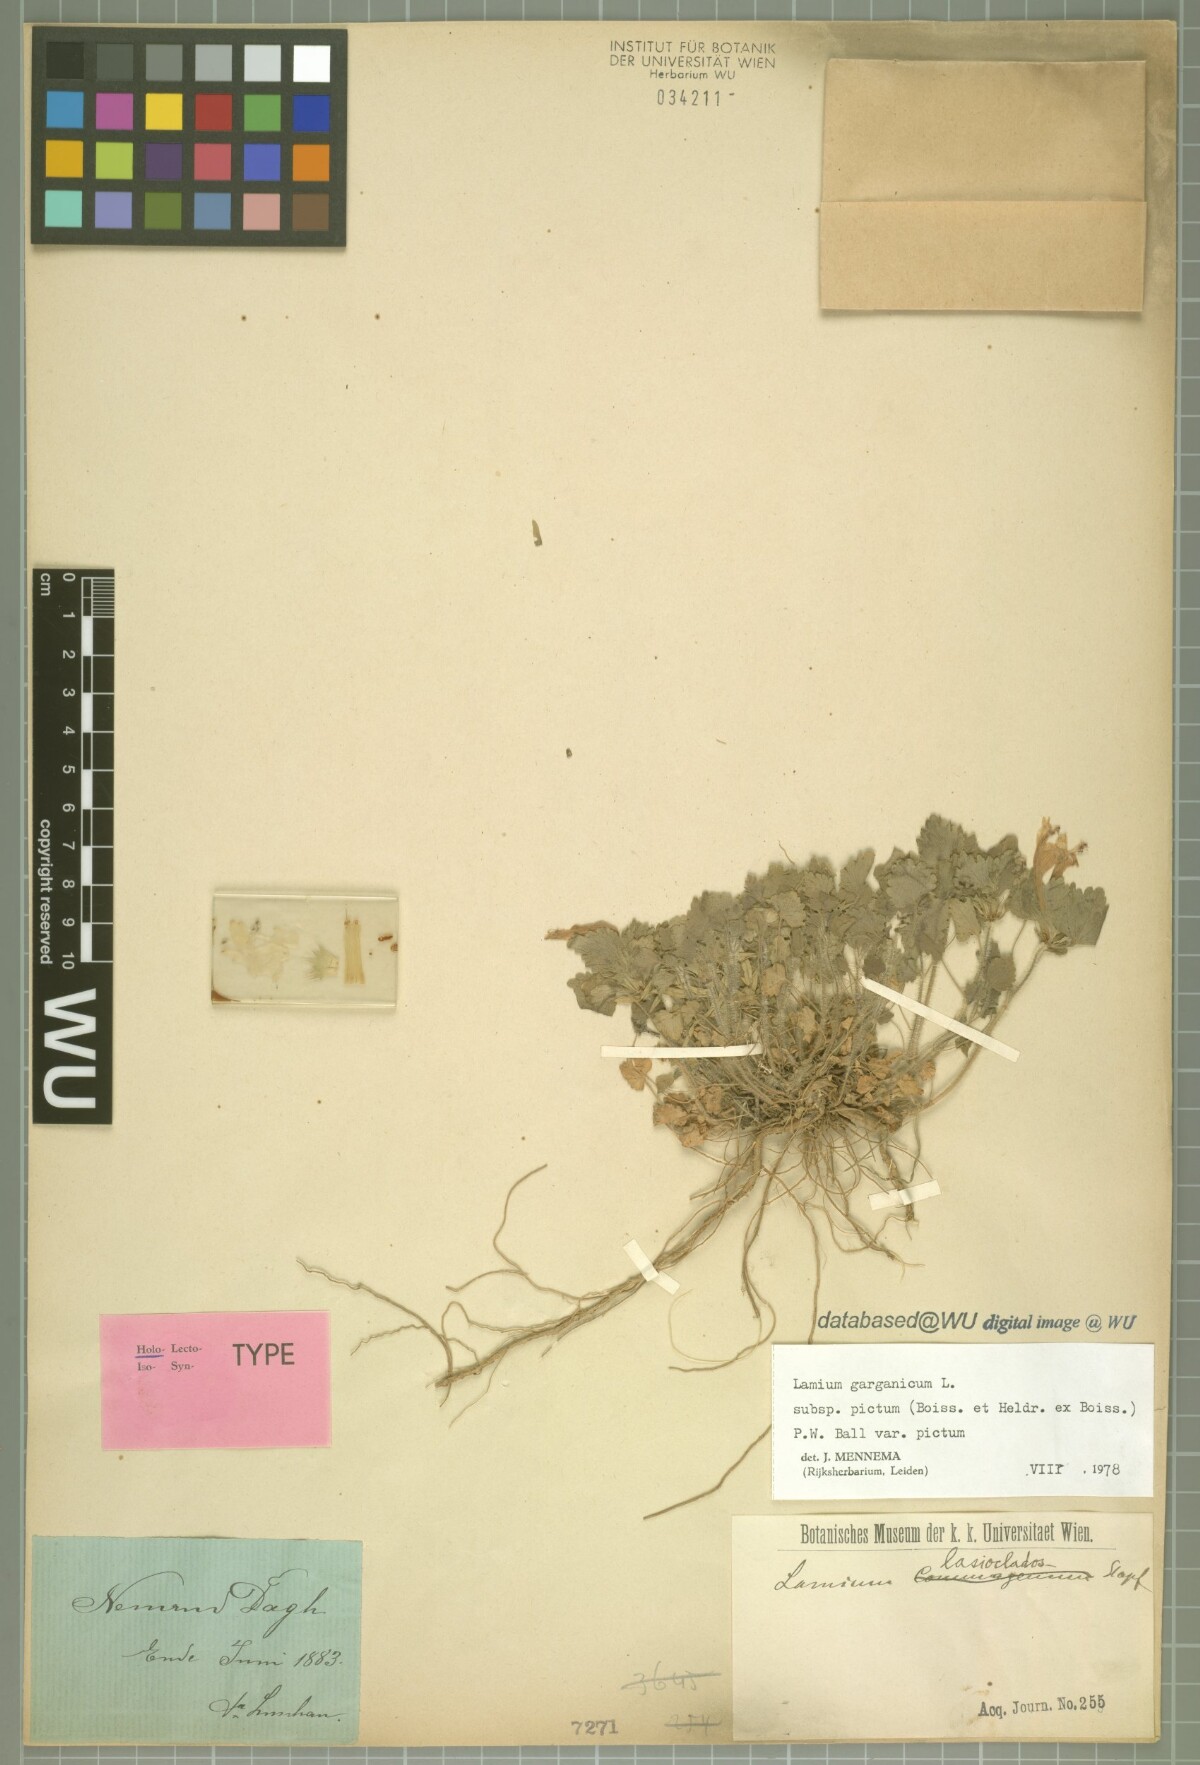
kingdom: Plantae
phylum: Tracheophyta
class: Magnoliopsida
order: Lamiales
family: Lamiaceae
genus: Lamium
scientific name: Lamium garganicum
